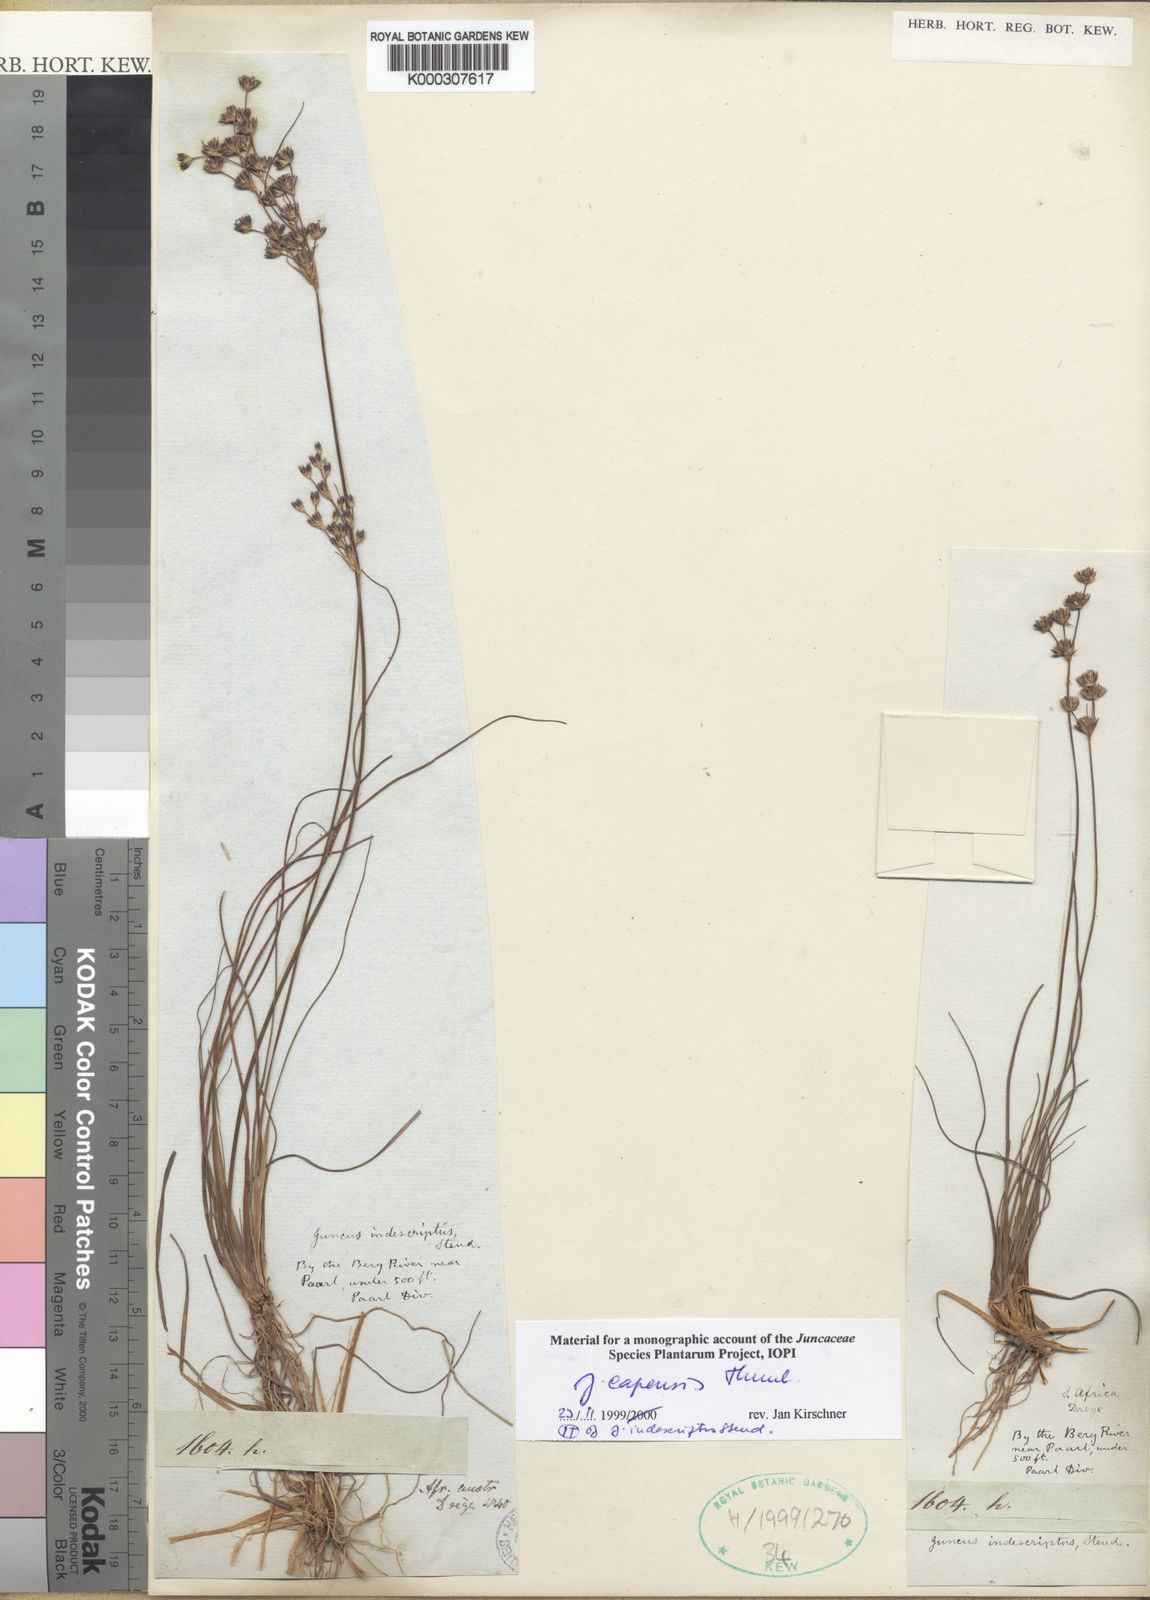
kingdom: Plantae
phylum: Tracheophyta
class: Liliopsida
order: Poales
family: Juncaceae
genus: Juncus
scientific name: Juncus capensis
